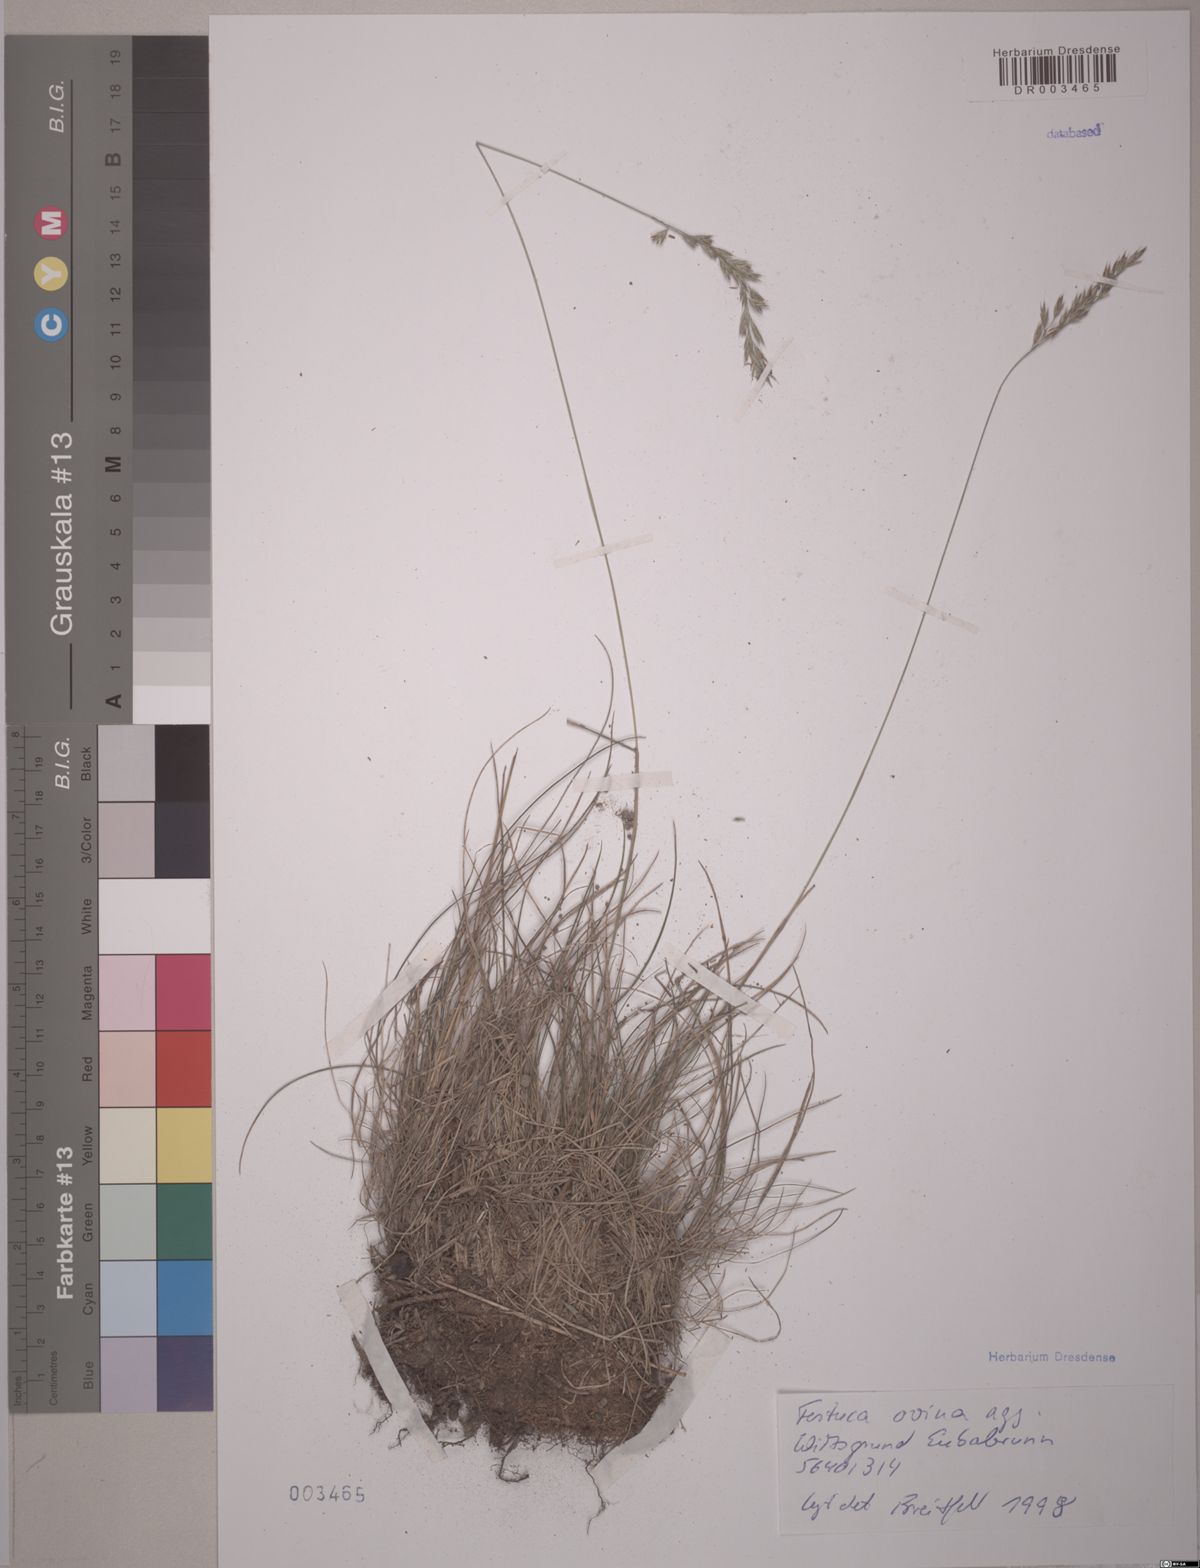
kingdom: Plantae
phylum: Tracheophyta
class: Liliopsida
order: Poales
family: Poaceae
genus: Festuca
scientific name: Festuca ovina
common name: Sheep fescue
